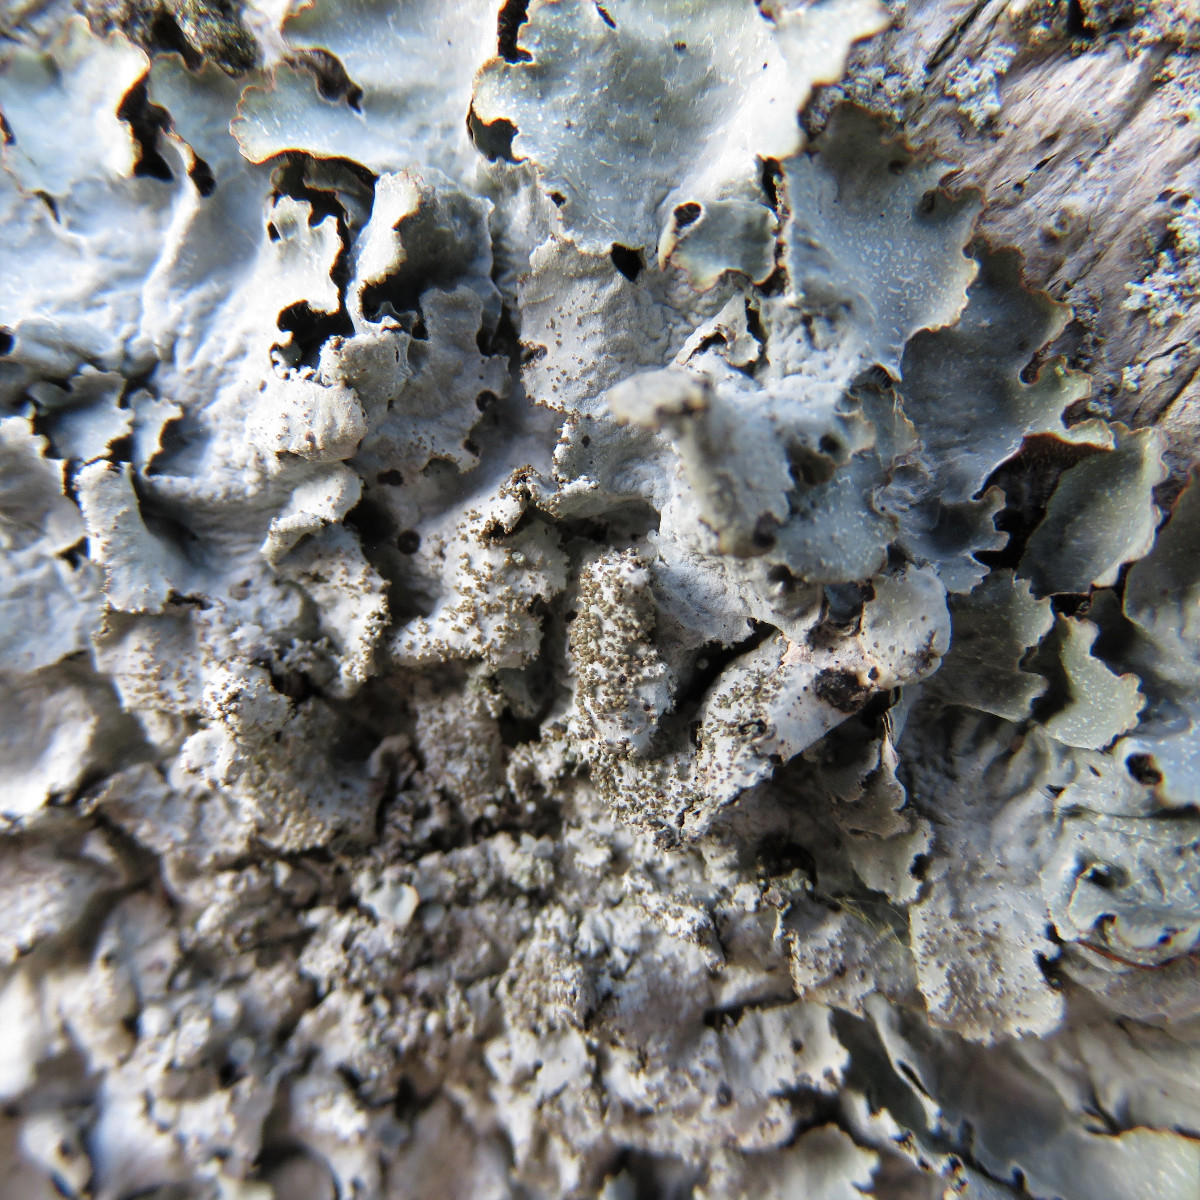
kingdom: Fungi
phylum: Ascomycota
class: Lecanoromycetes
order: Lecanorales
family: Parmeliaceae
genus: Parmelia
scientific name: Parmelia saxatilis
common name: farve-skållav
